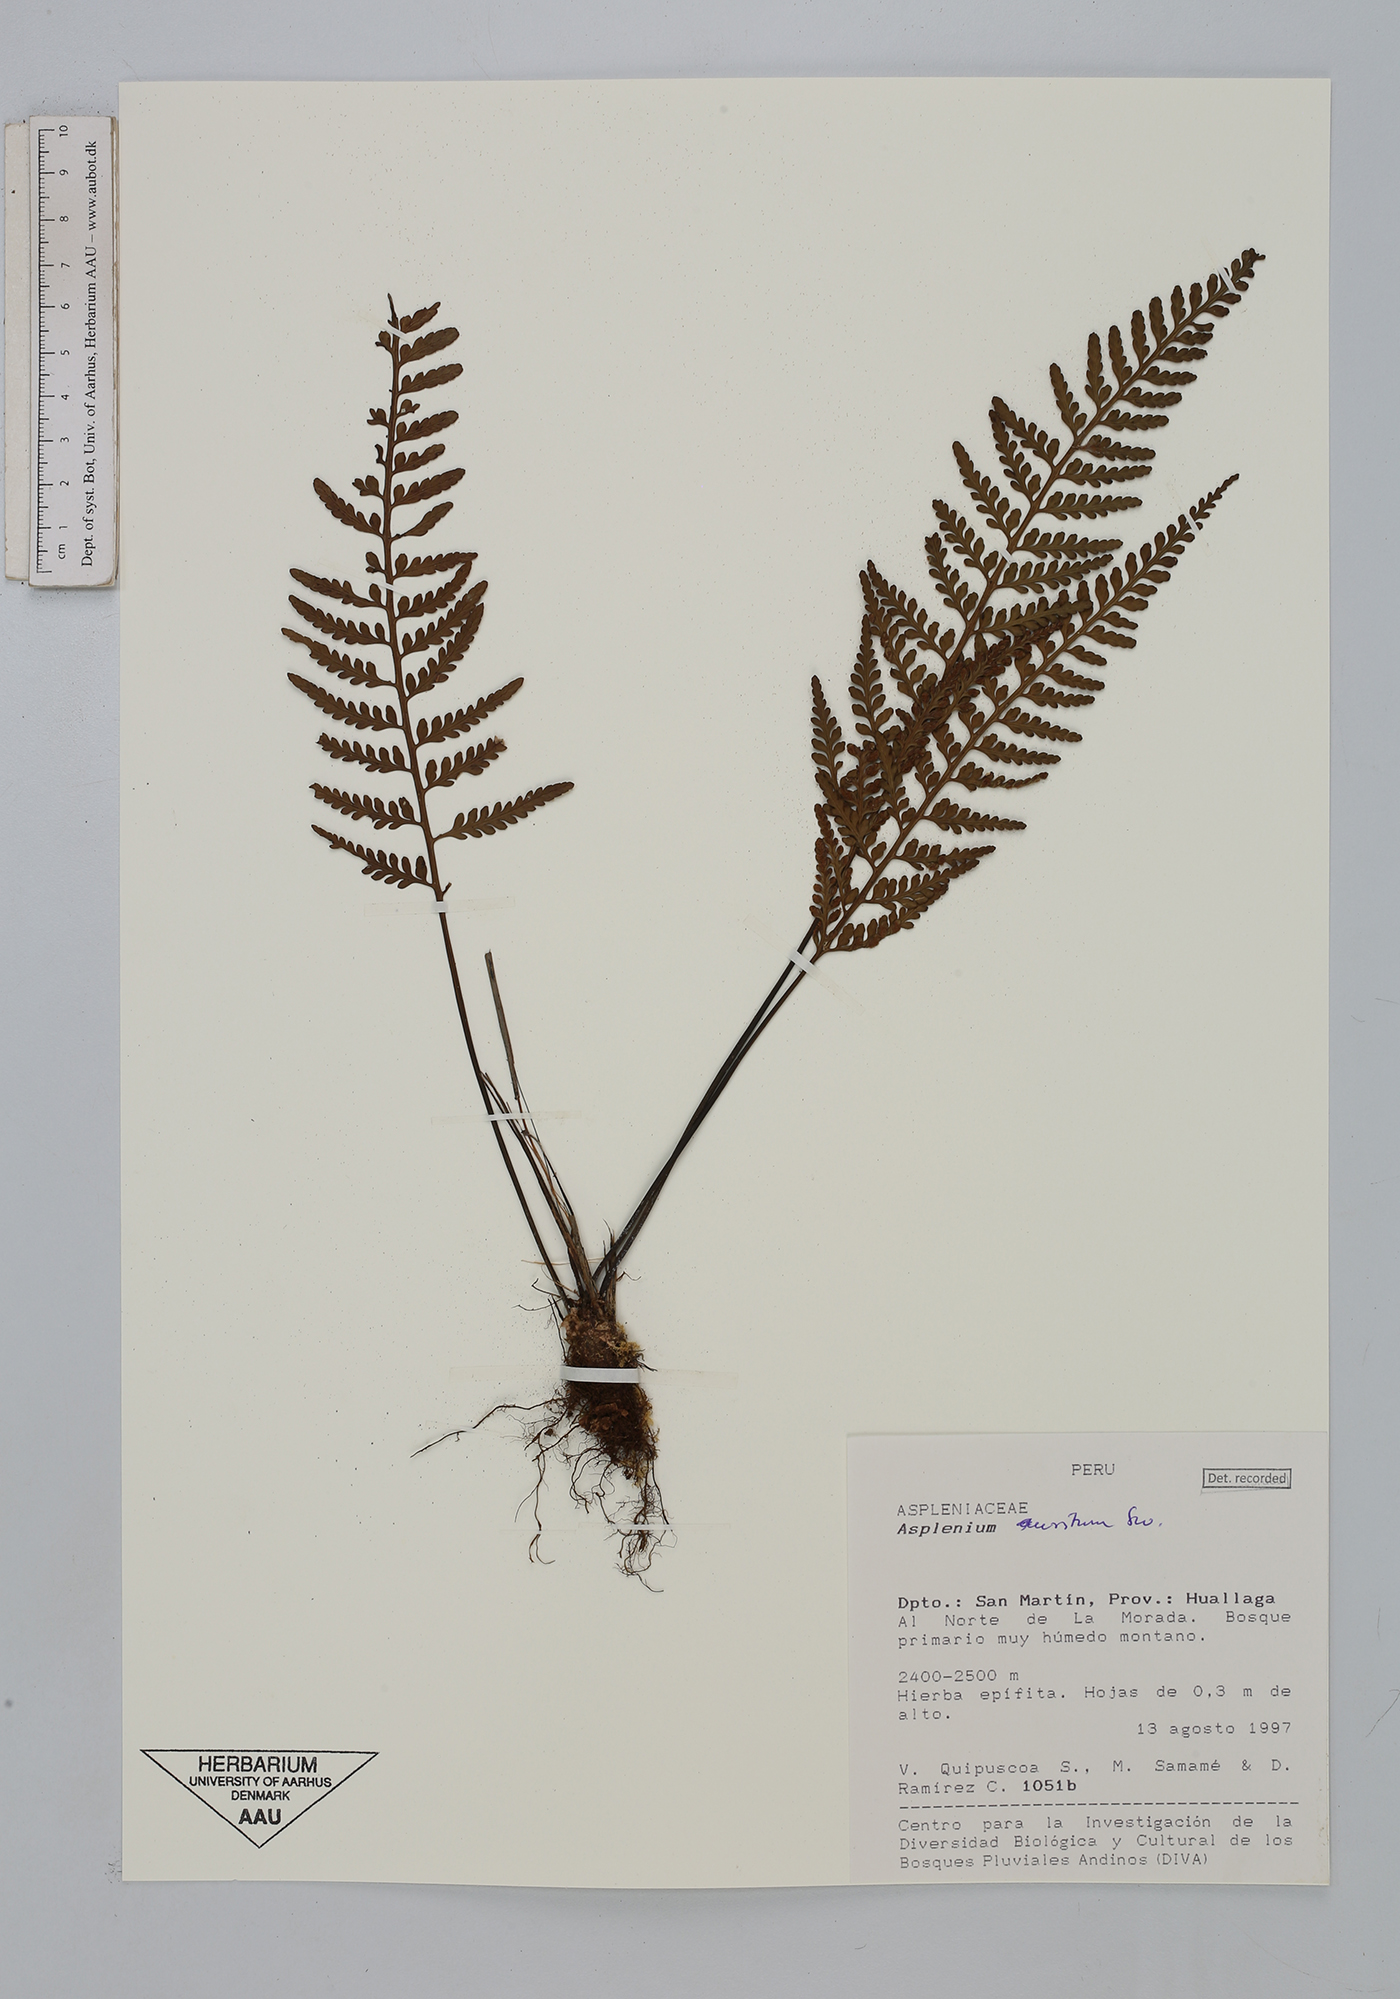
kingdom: Plantae
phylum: Tracheophyta
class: Polypodiopsida
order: Polypodiales
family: Aspleniaceae
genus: Asplenium
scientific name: Asplenium auritum
